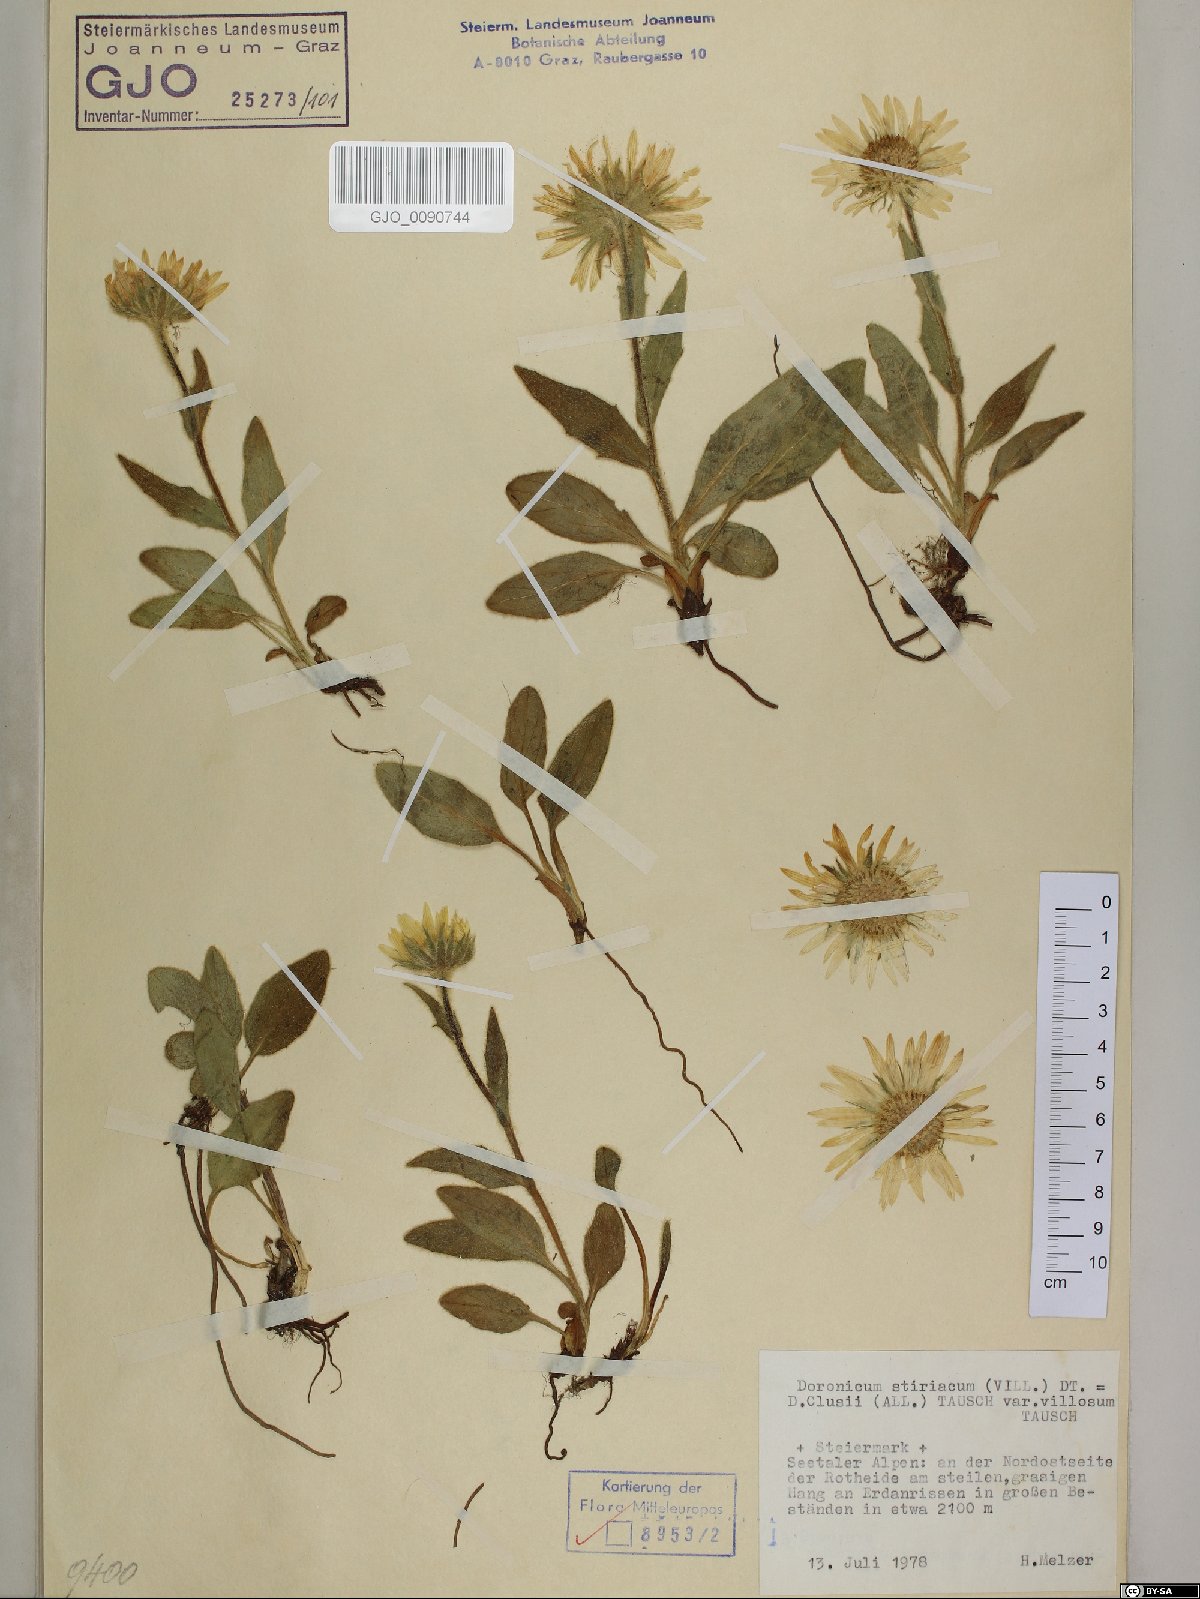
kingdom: Plantae
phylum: Tracheophyta
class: Magnoliopsida
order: Asterales
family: Asteraceae
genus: Doronicum
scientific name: Doronicum clusii
